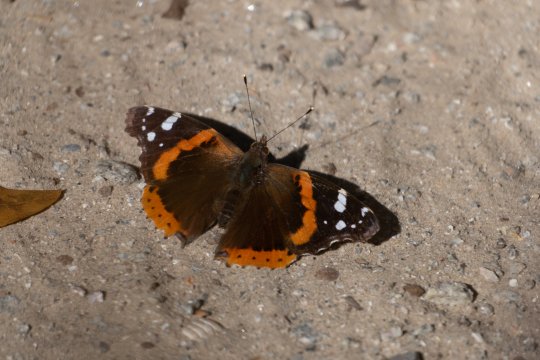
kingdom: Animalia
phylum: Arthropoda
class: Insecta
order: Lepidoptera
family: Nymphalidae
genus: Vanessa
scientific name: Vanessa atalanta
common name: Red Admiral
